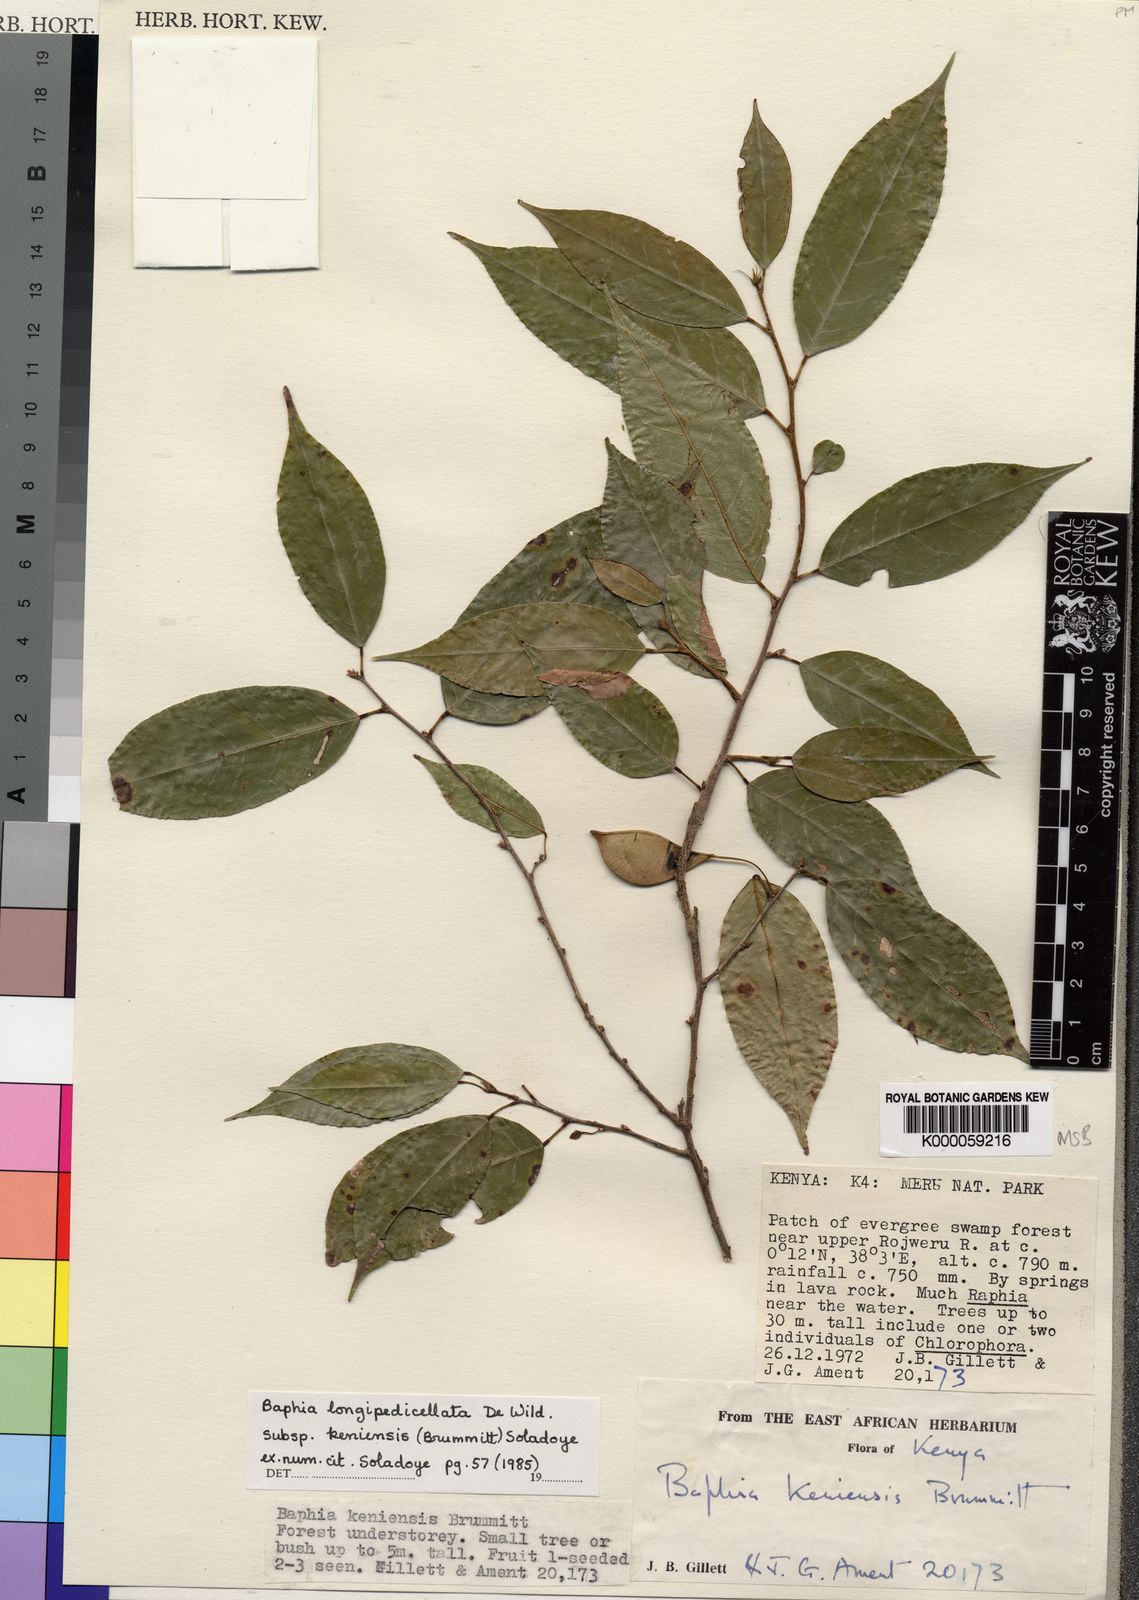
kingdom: Plantae
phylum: Tracheophyta
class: Magnoliopsida
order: Fabales
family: Fabaceae
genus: Baphia
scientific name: Baphia longipedicellata
